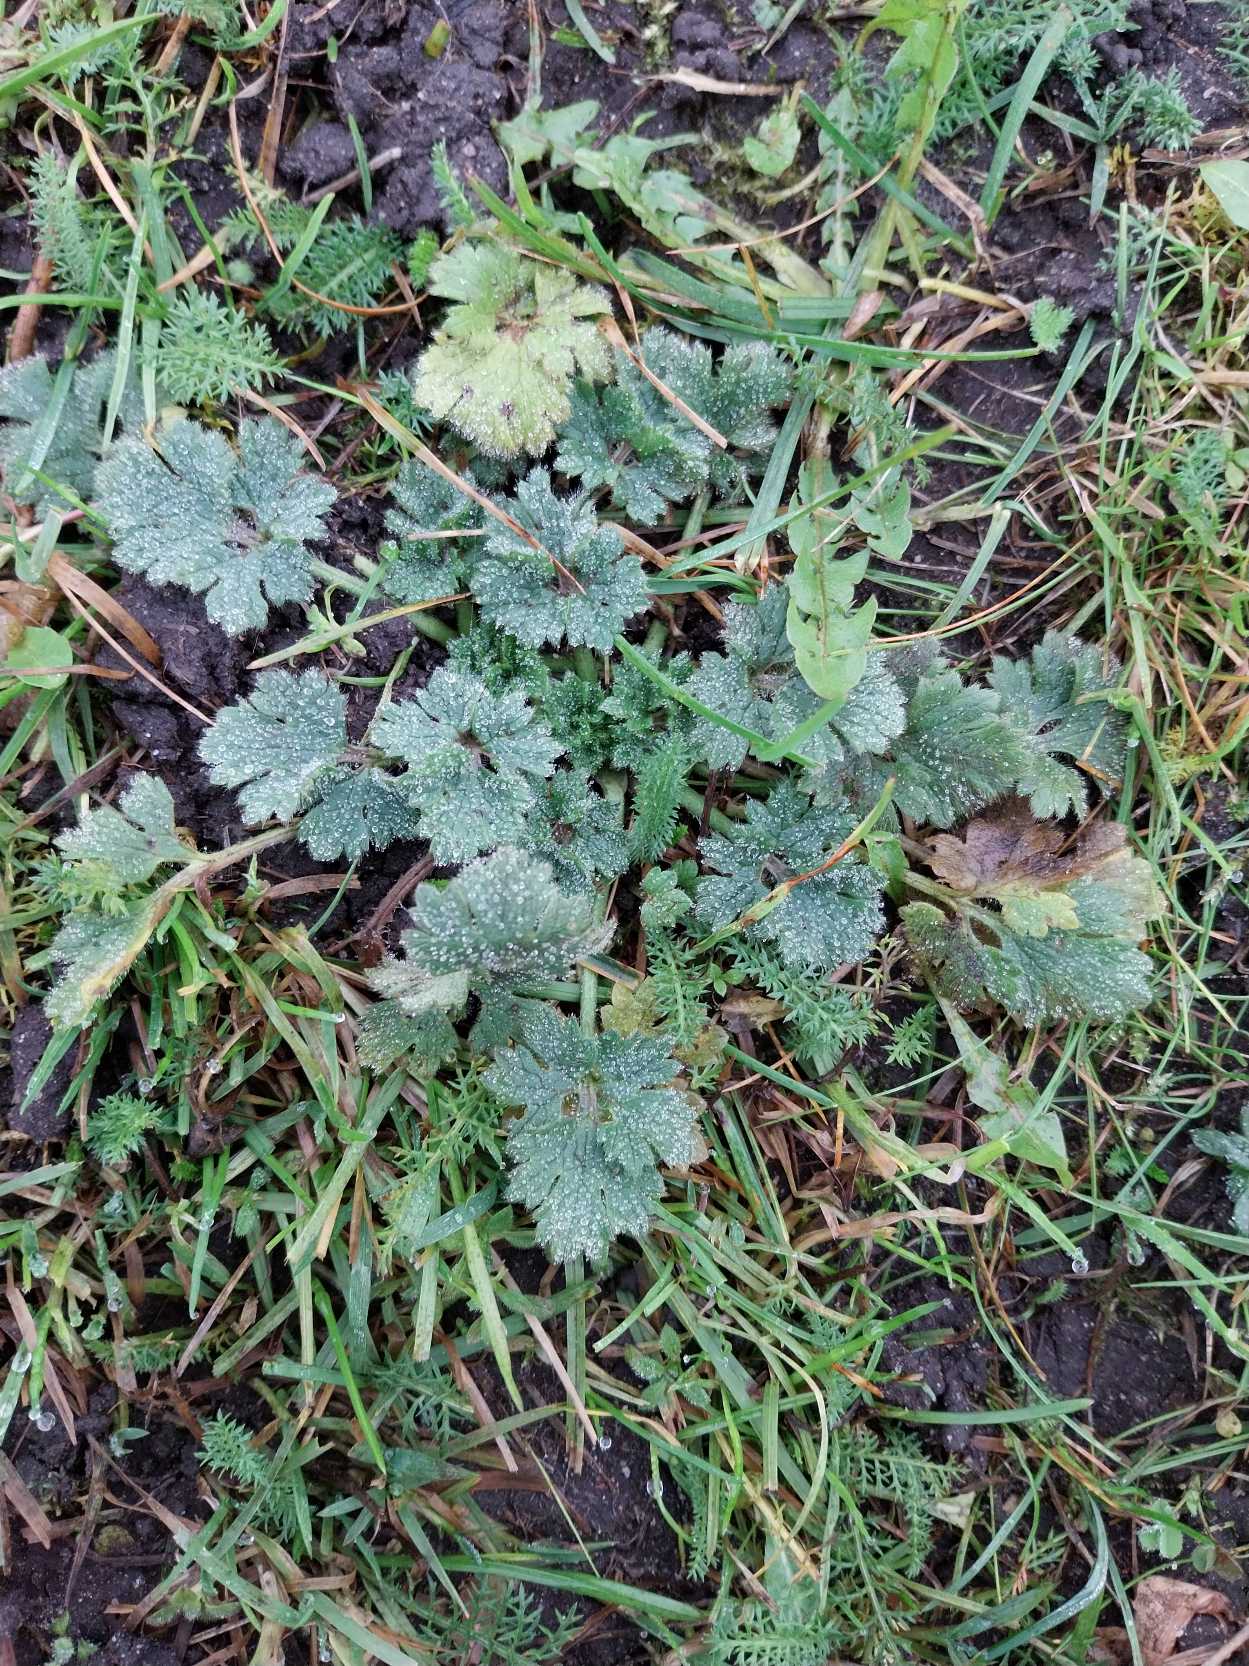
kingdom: Plantae
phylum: Tracheophyta
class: Magnoliopsida
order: Ranunculales
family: Ranunculaceae
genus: Ranunculus
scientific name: Ranunculus bulbosus
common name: Knold-ranunkel
